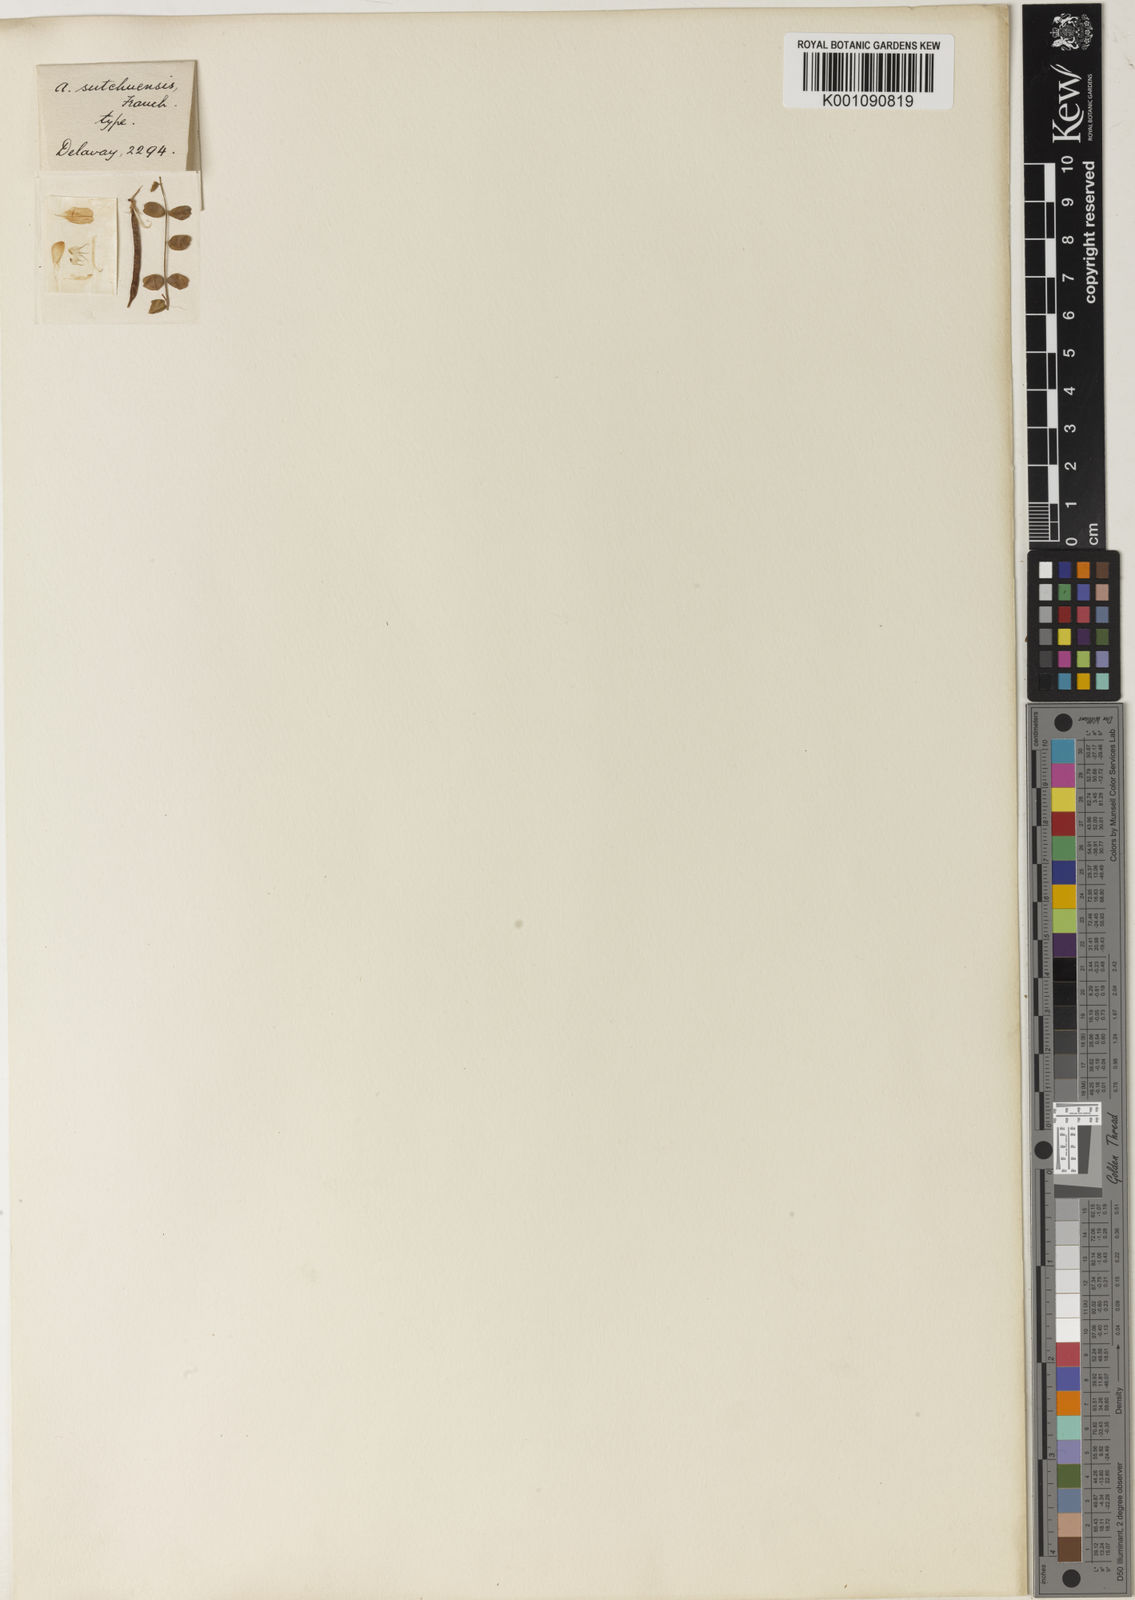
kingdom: Plantae
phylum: Tracheophyta
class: Magnoliopsida
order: Fabales
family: Fabaceae
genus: Astragalus
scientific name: Astragalus
